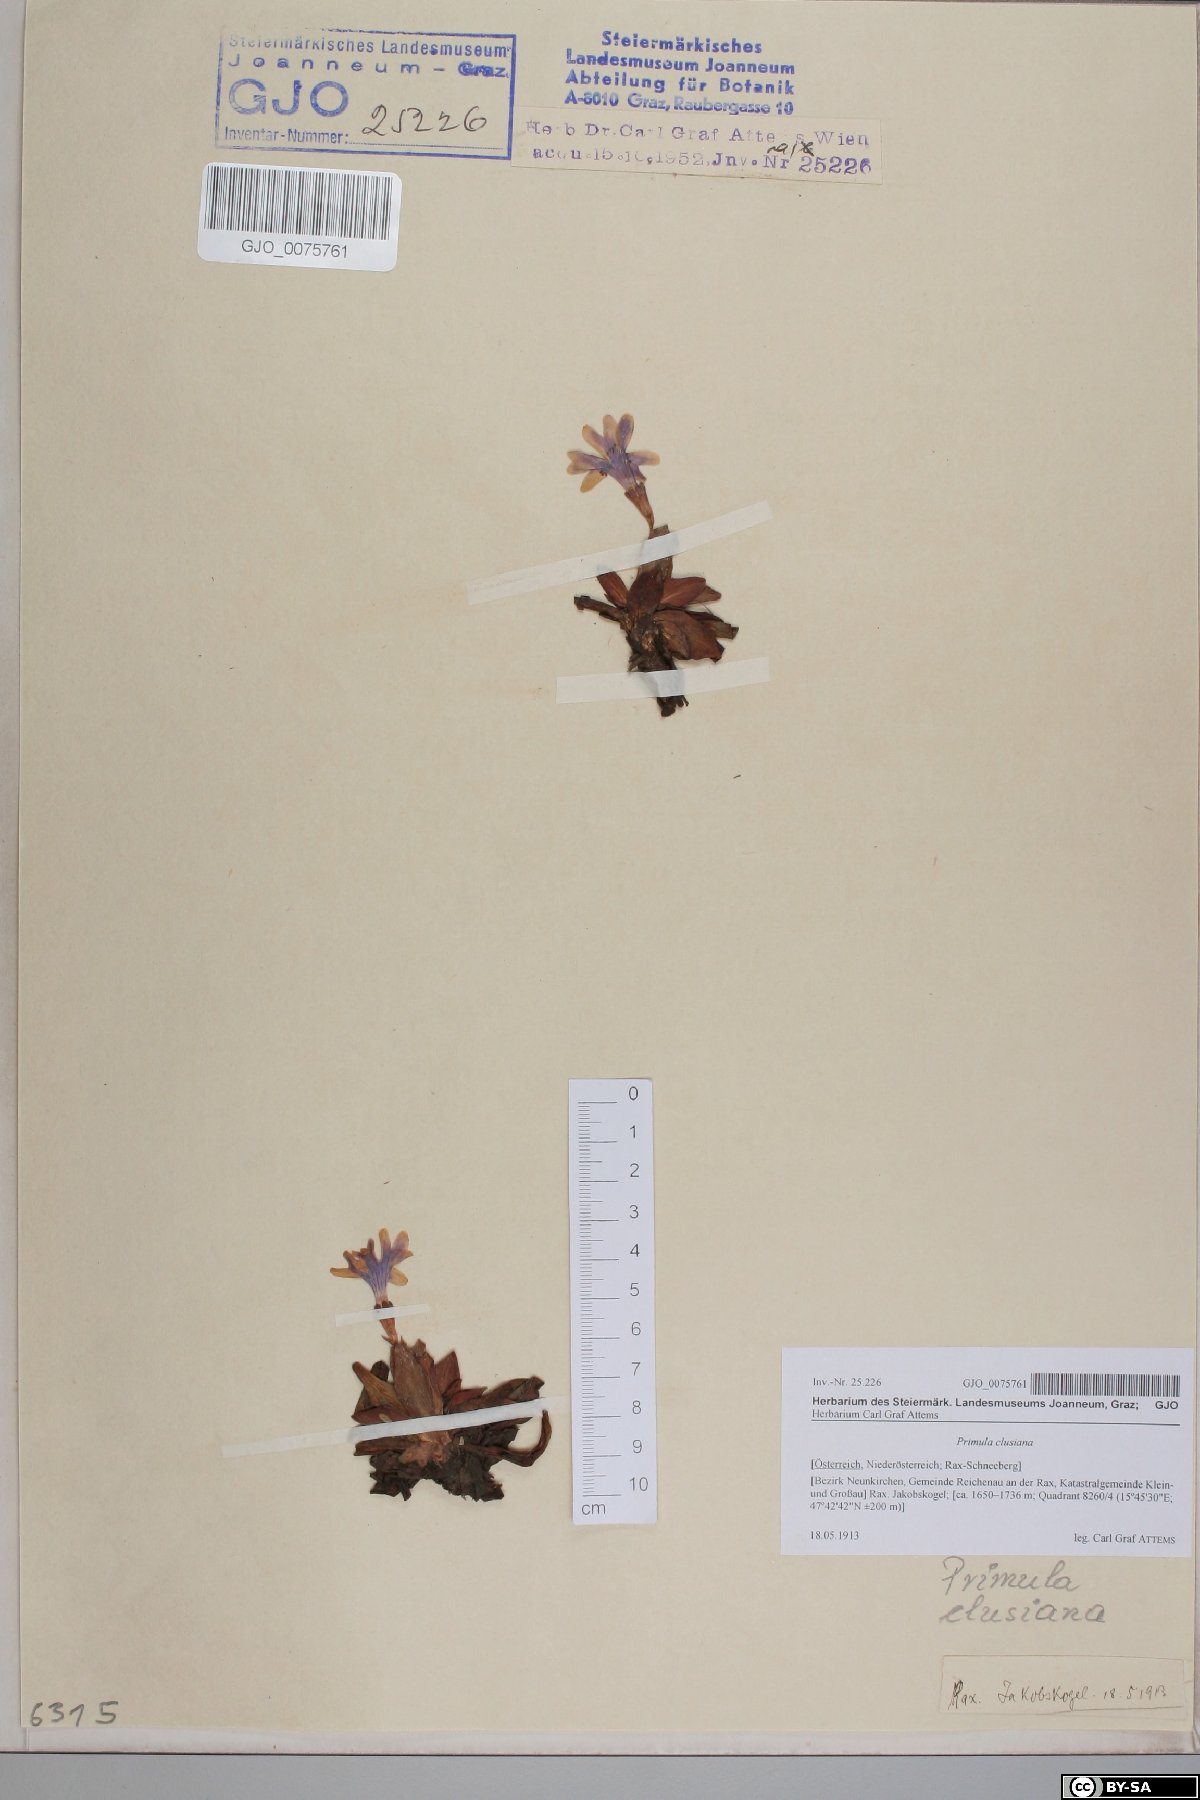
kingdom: Plantae
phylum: Tracheophyta
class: Magnoliopsida
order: Ericales
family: Primulaceae
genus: Primula
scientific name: Primula clusiana
